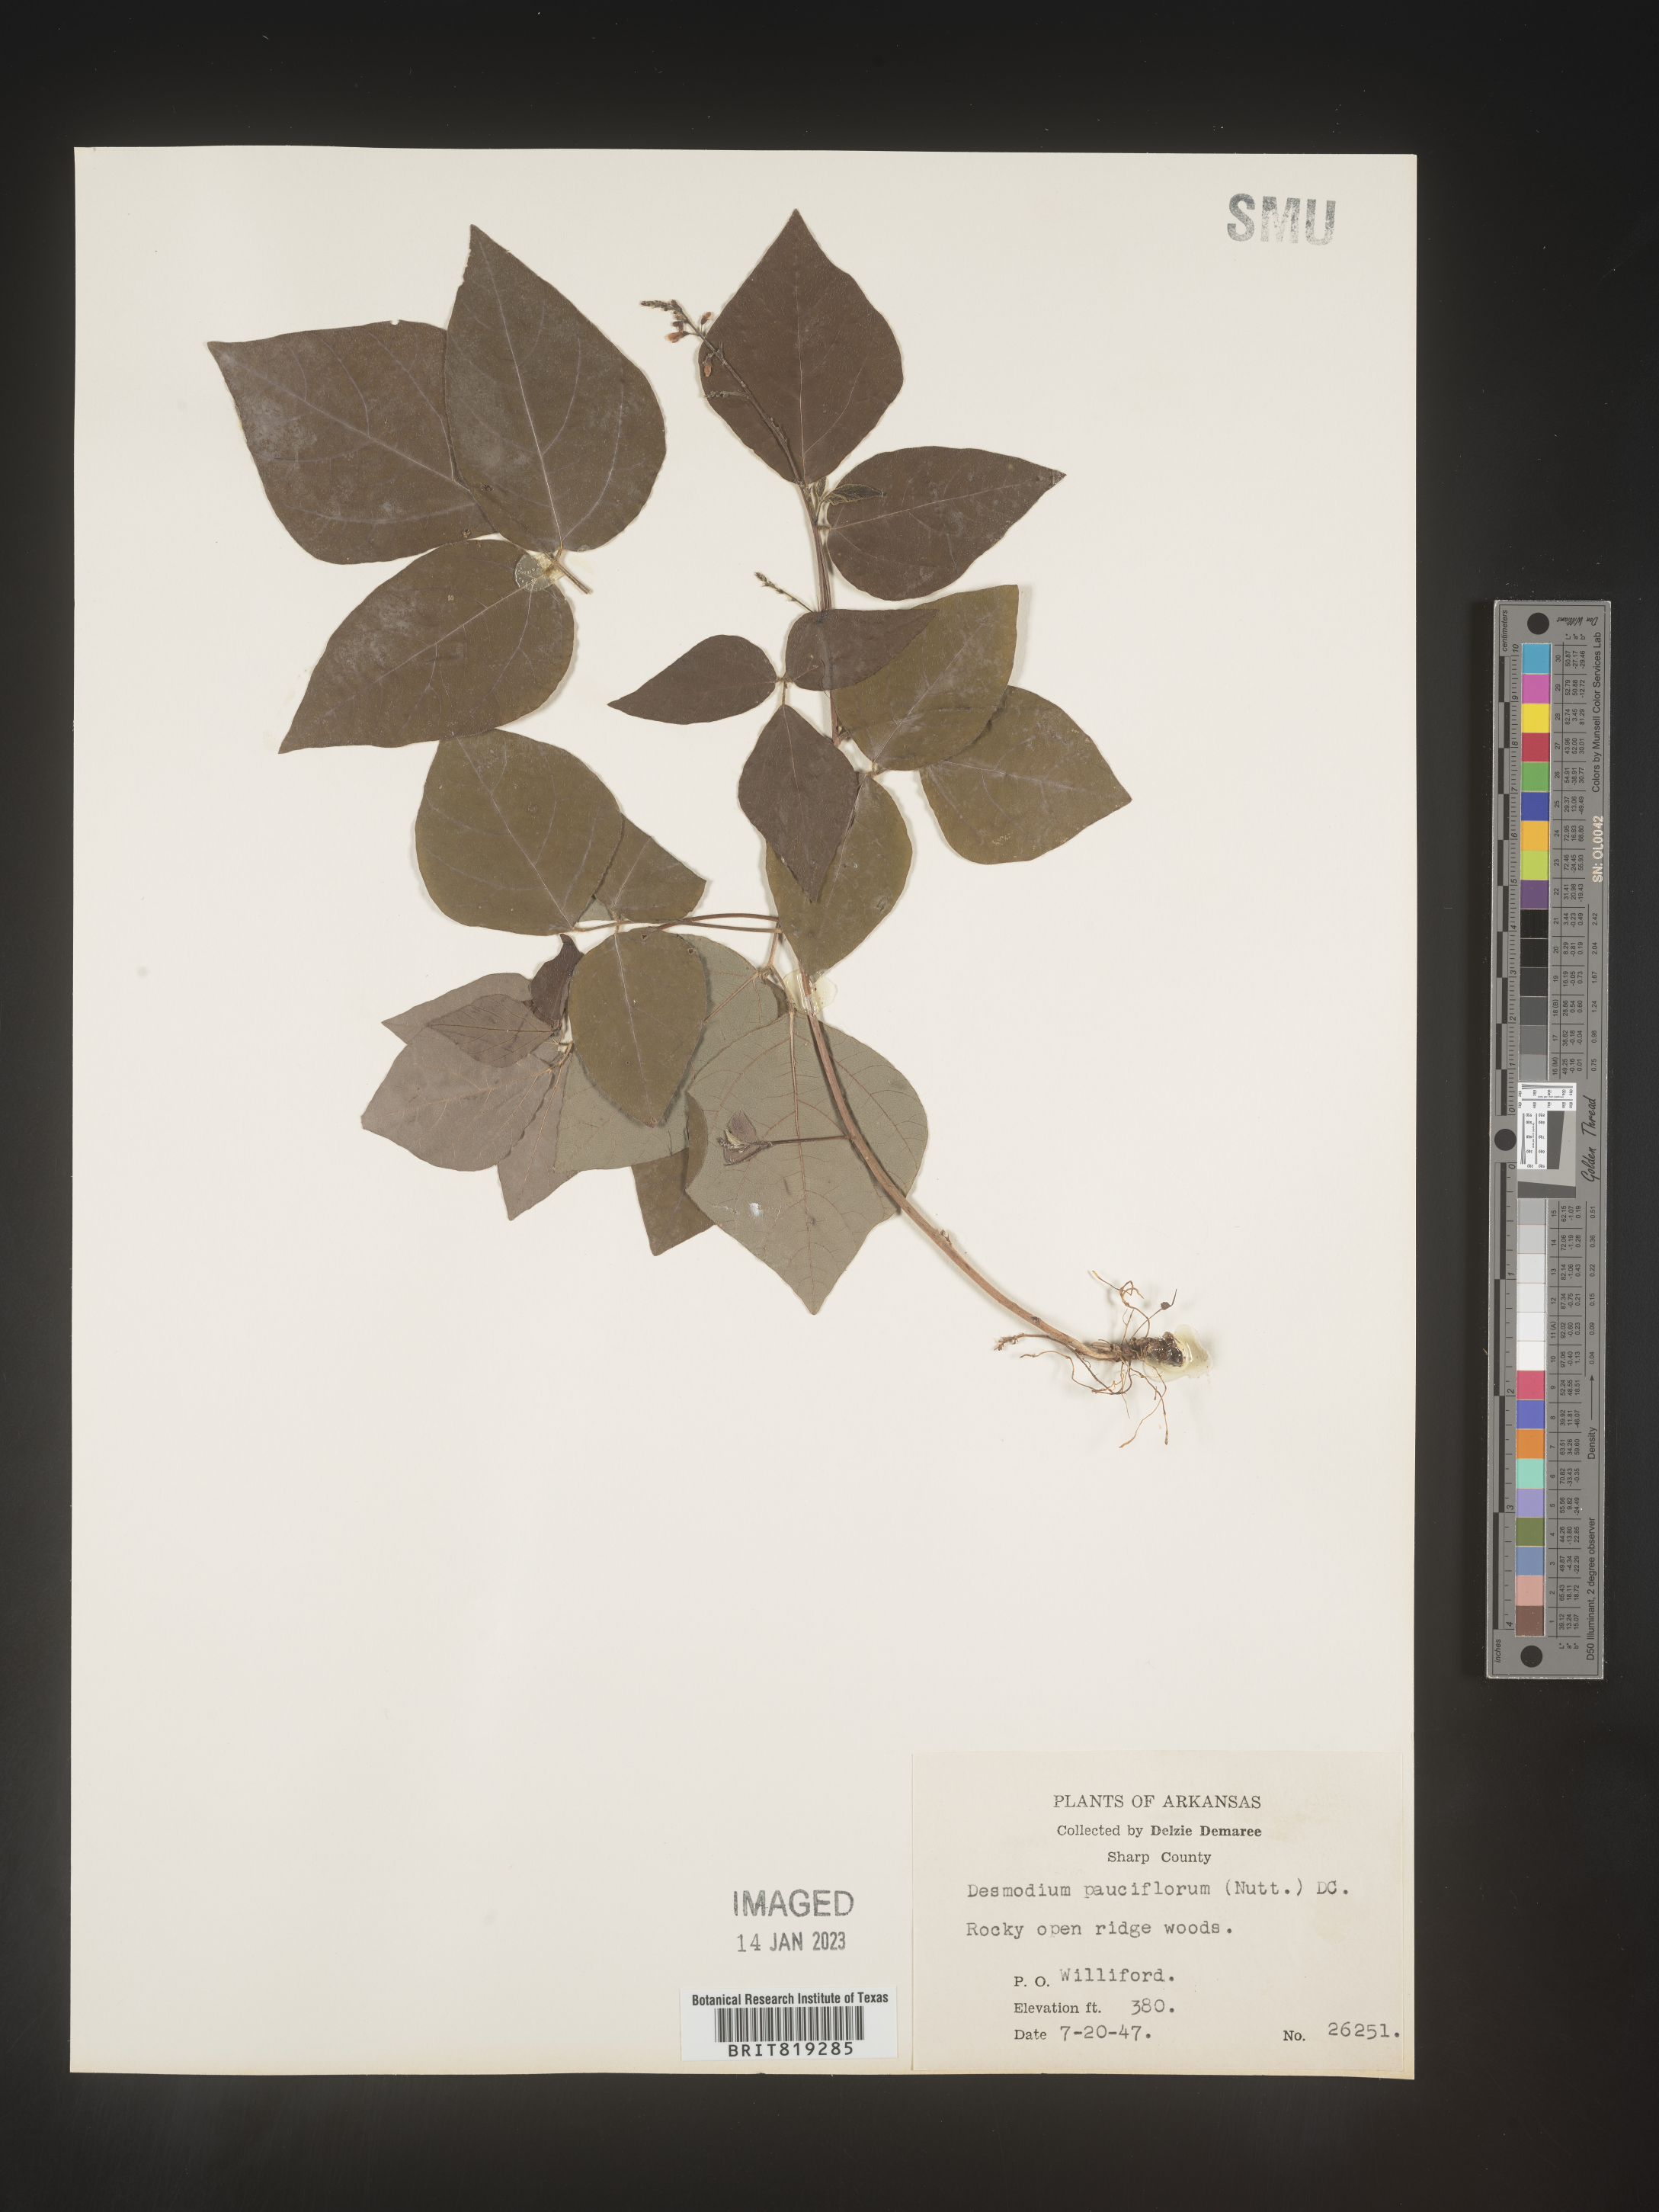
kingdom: Plantae
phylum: Tracheophyta
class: Magnoliopsida
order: Fabales
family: Fabaceae
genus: Hylodesmum
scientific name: Hylodesmum pauciflorum
